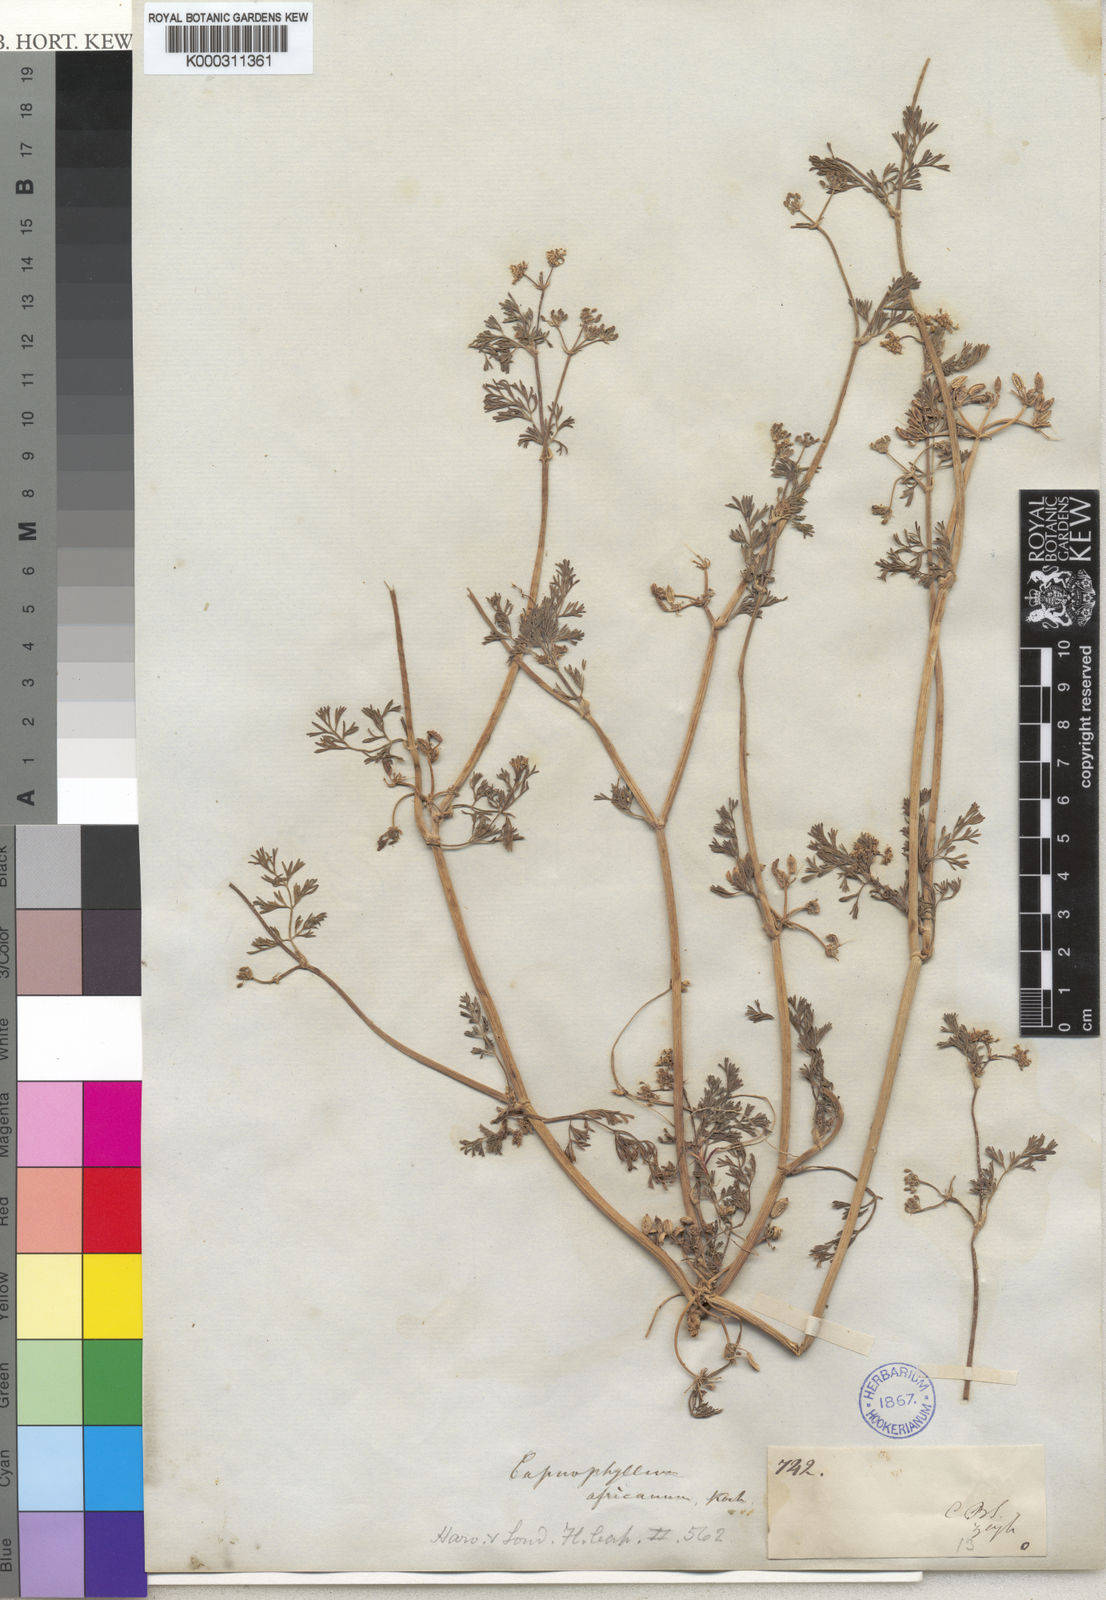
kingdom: Plantae
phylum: Tracheophyta
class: Magnoliopsida
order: Apiales
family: Apiaceae
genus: Capnophyllum
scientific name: Capnophyllum africanum
